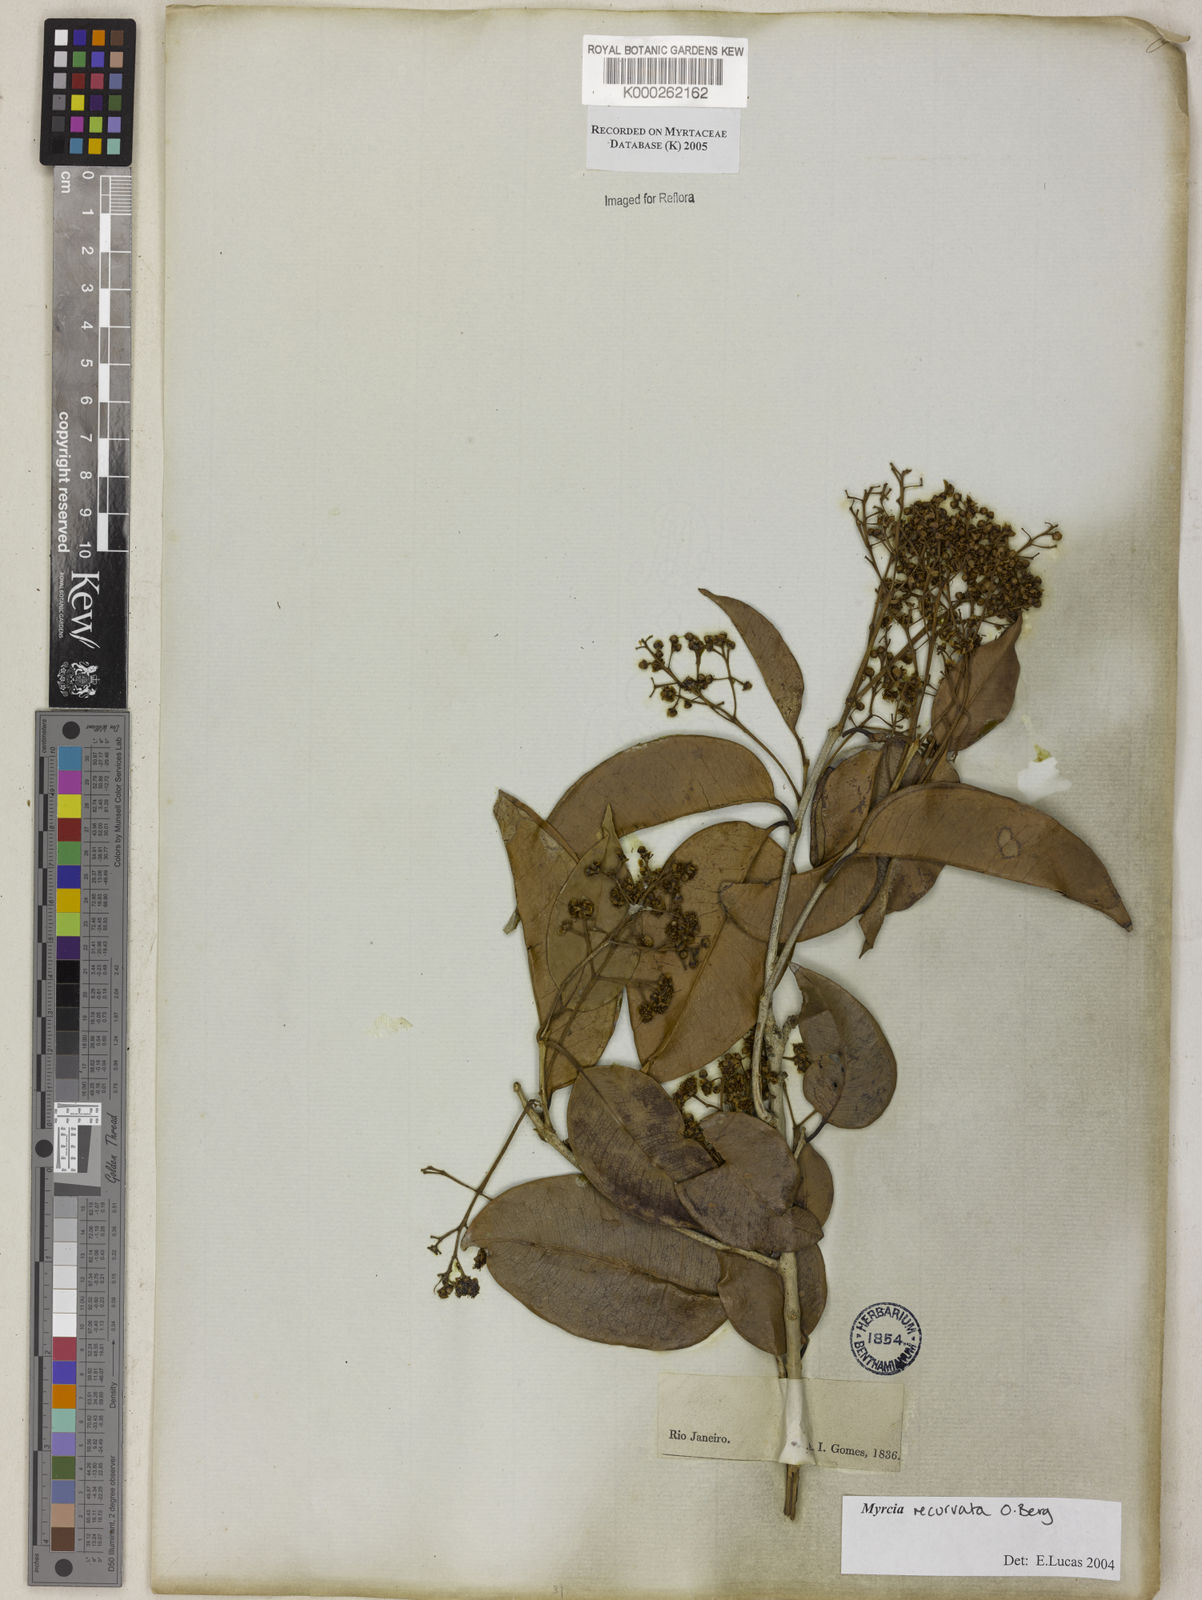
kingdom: Plantae
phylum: Tracheophyta
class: Magnoliopsida
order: Myrtales
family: Myrtaceae
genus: Myrcia
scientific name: Myrcia recurvata
